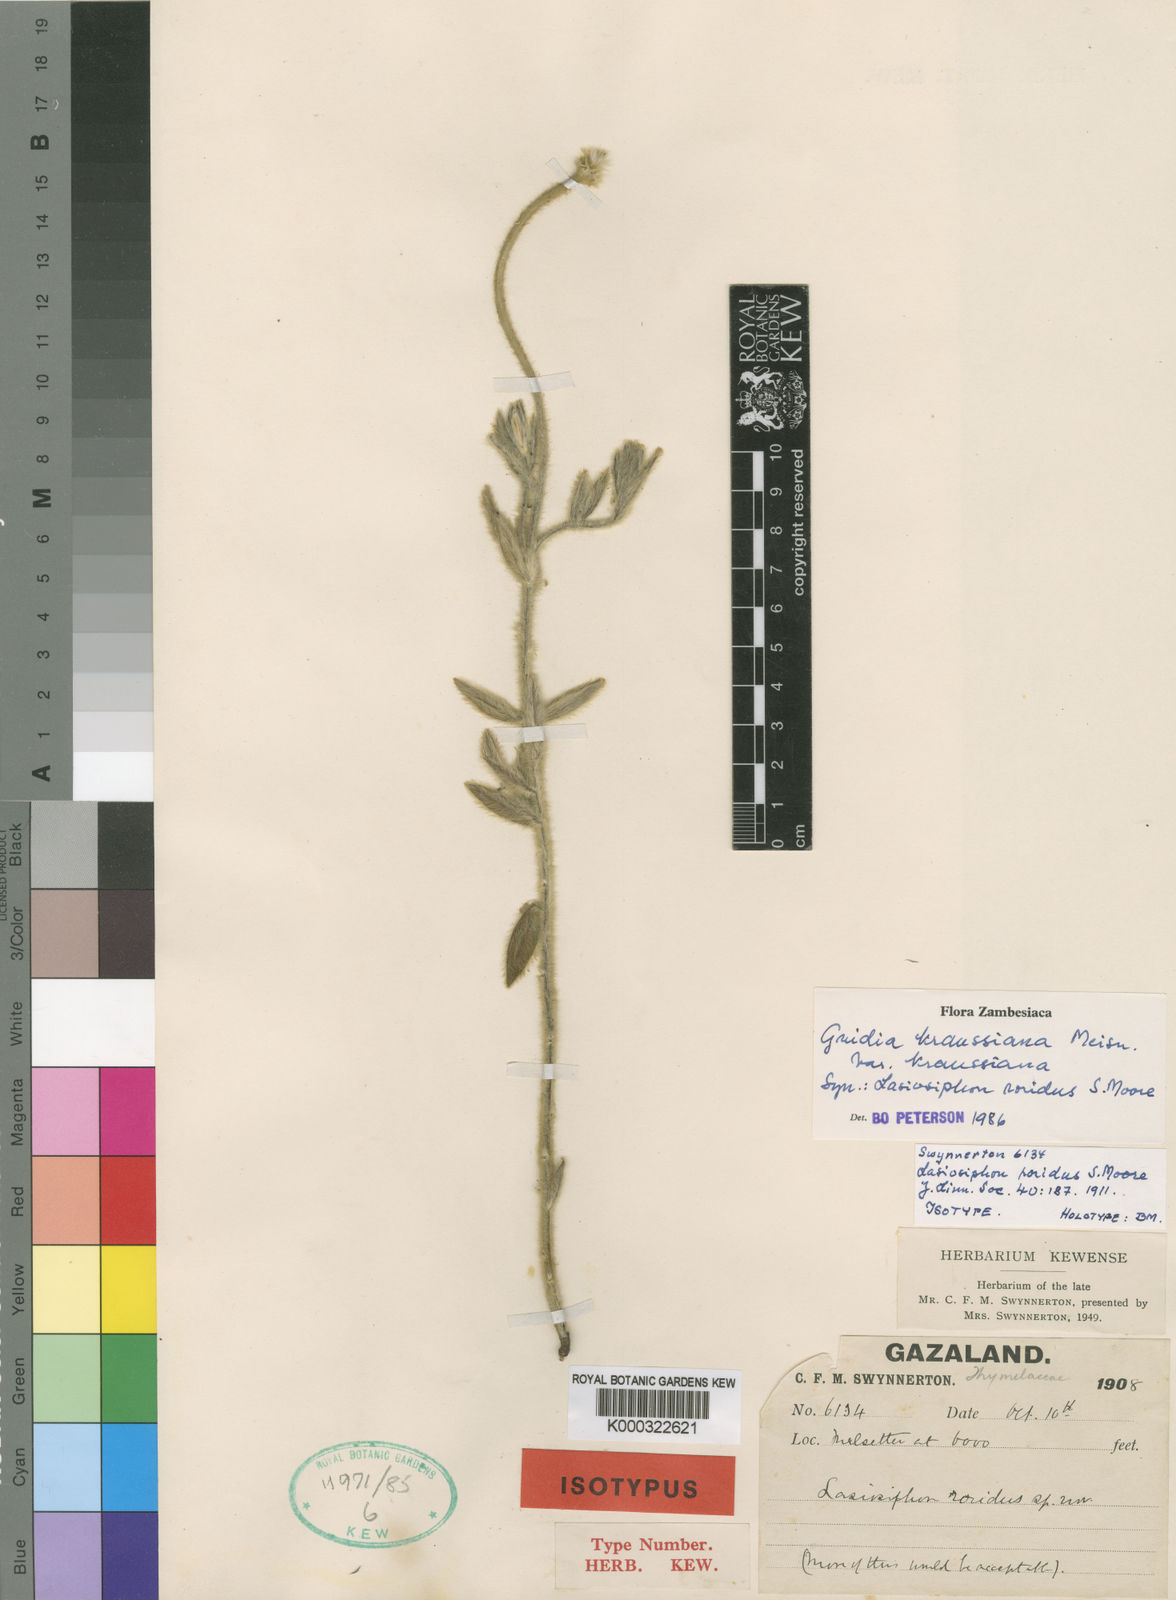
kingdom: Plantae
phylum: Tracheophyta
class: Magnoliopsida
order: Malvales
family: Thymelaeaceae
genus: Gnidia
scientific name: Gnidia kraussiana
